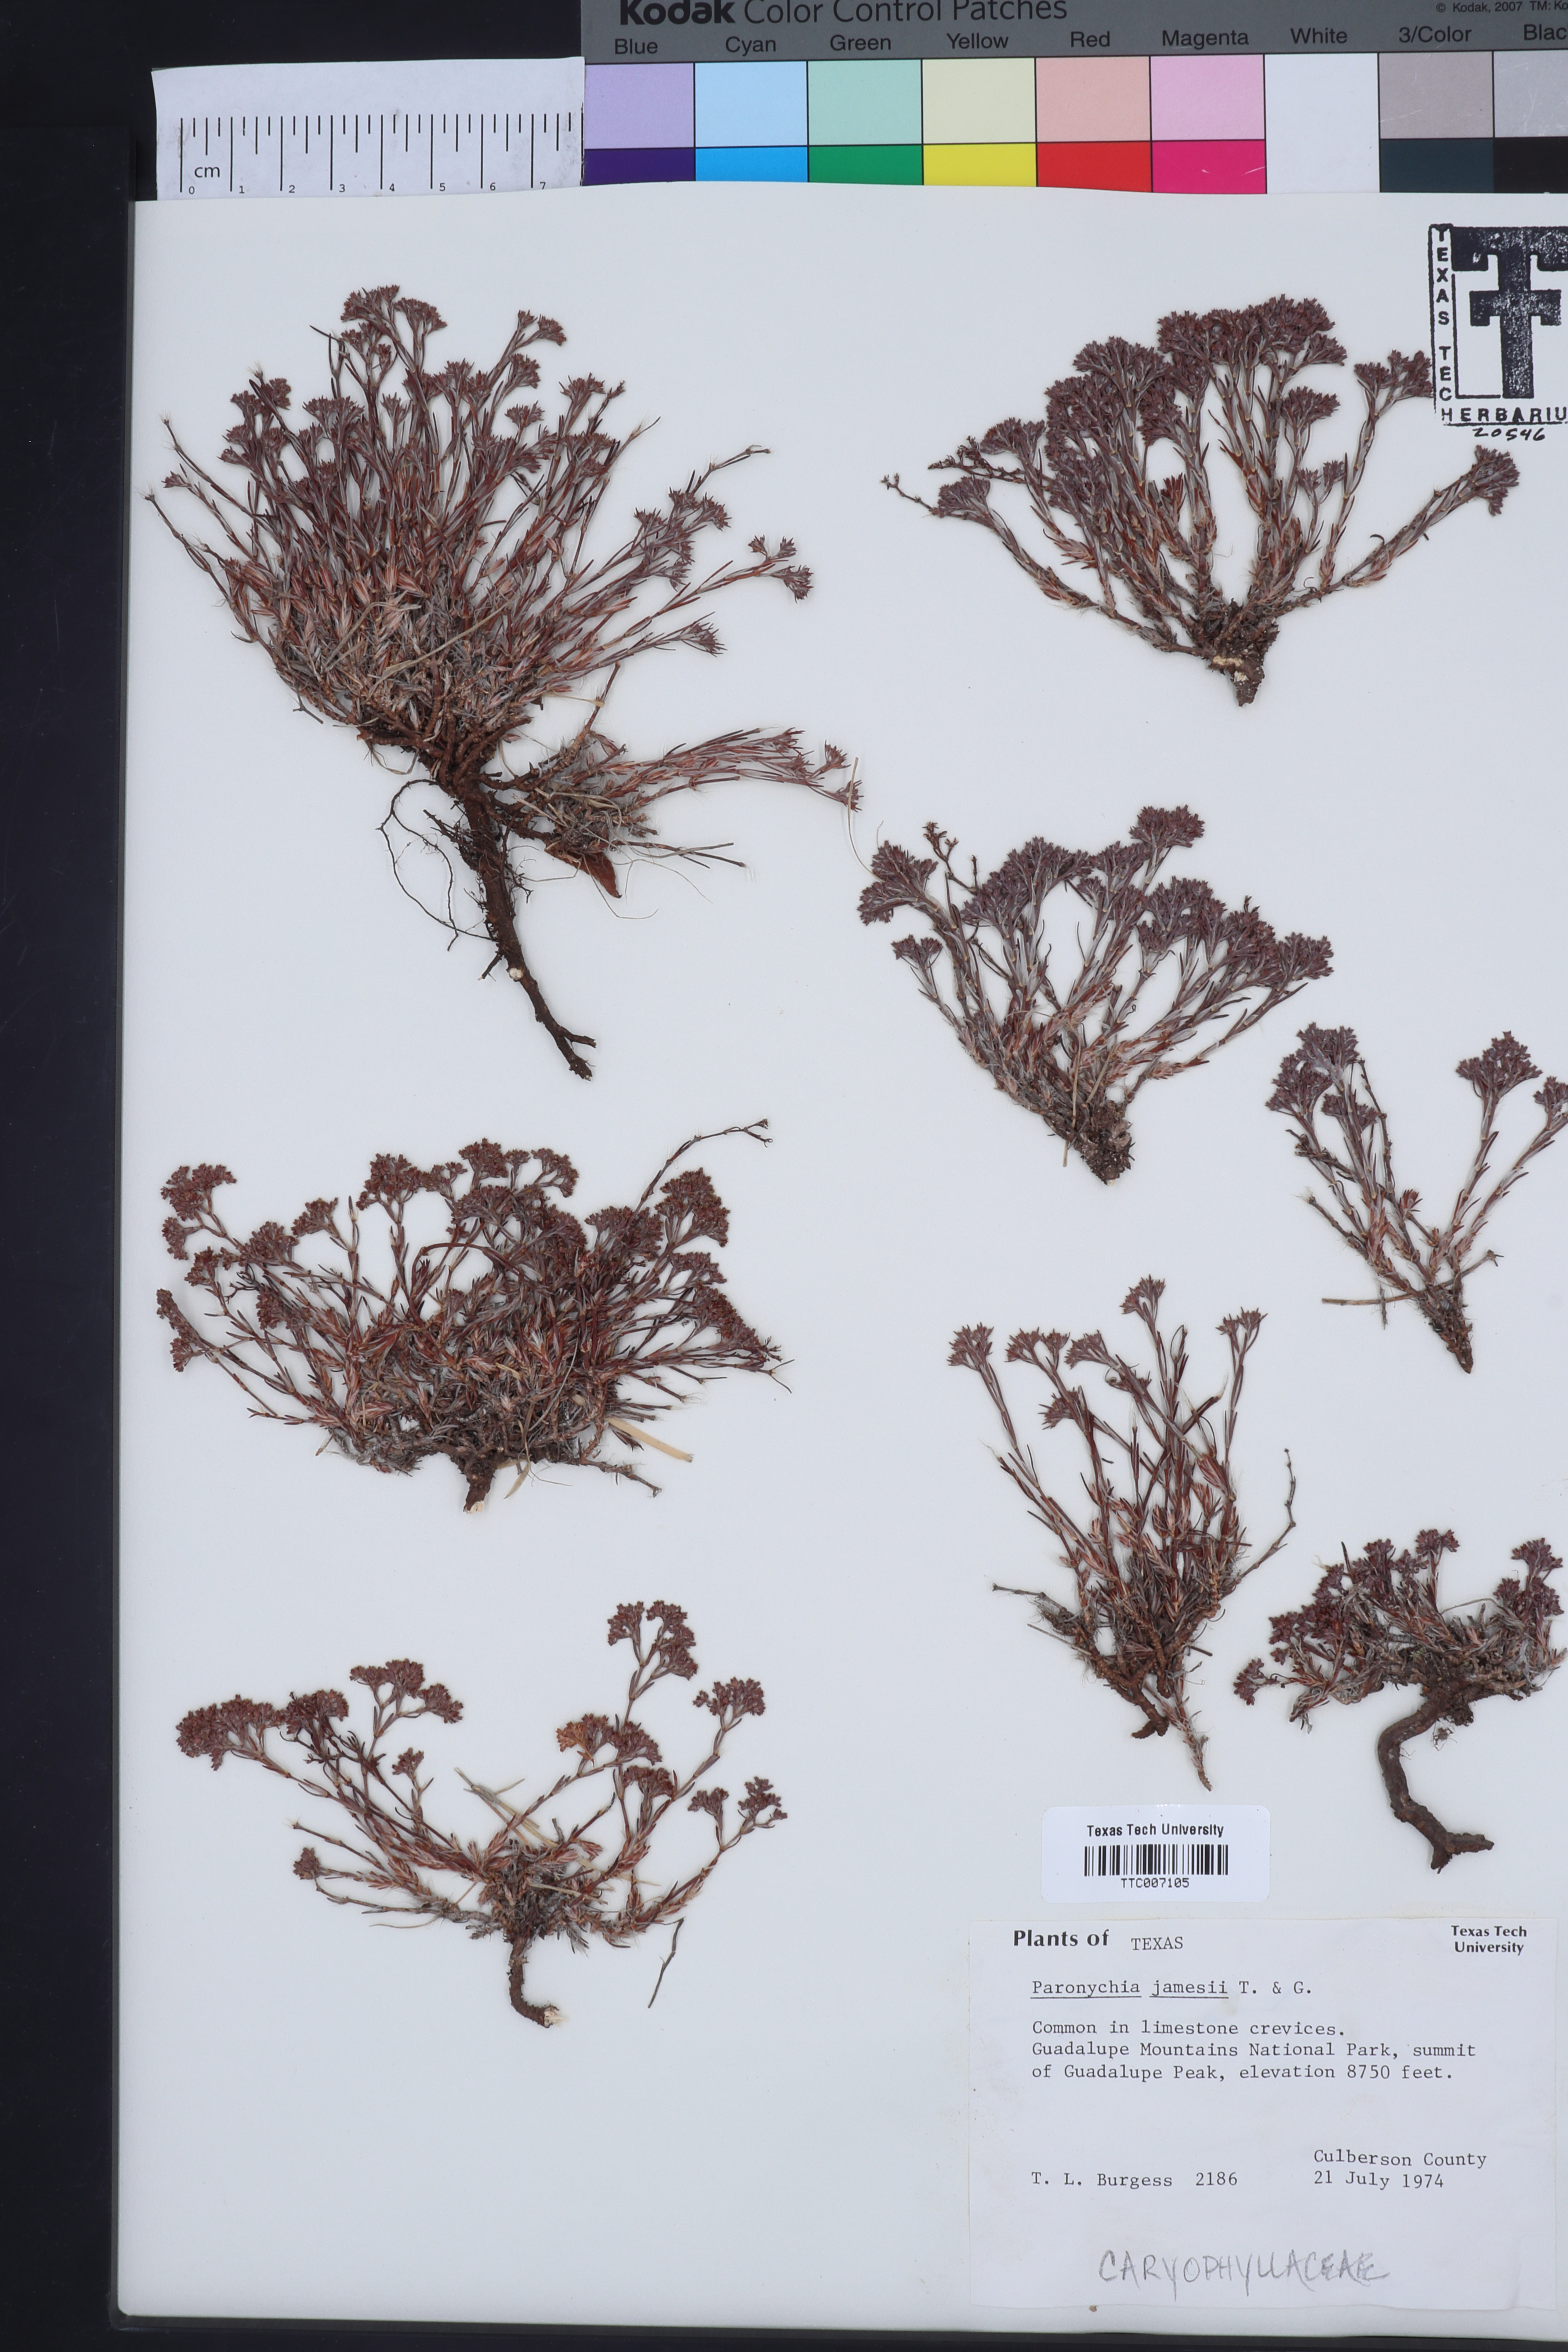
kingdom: Plantae
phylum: Tracheophyta
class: Magnoliopsida
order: Caryophyllales
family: Caryophyllaceae
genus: Paronychia
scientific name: Paronychia jamesii
